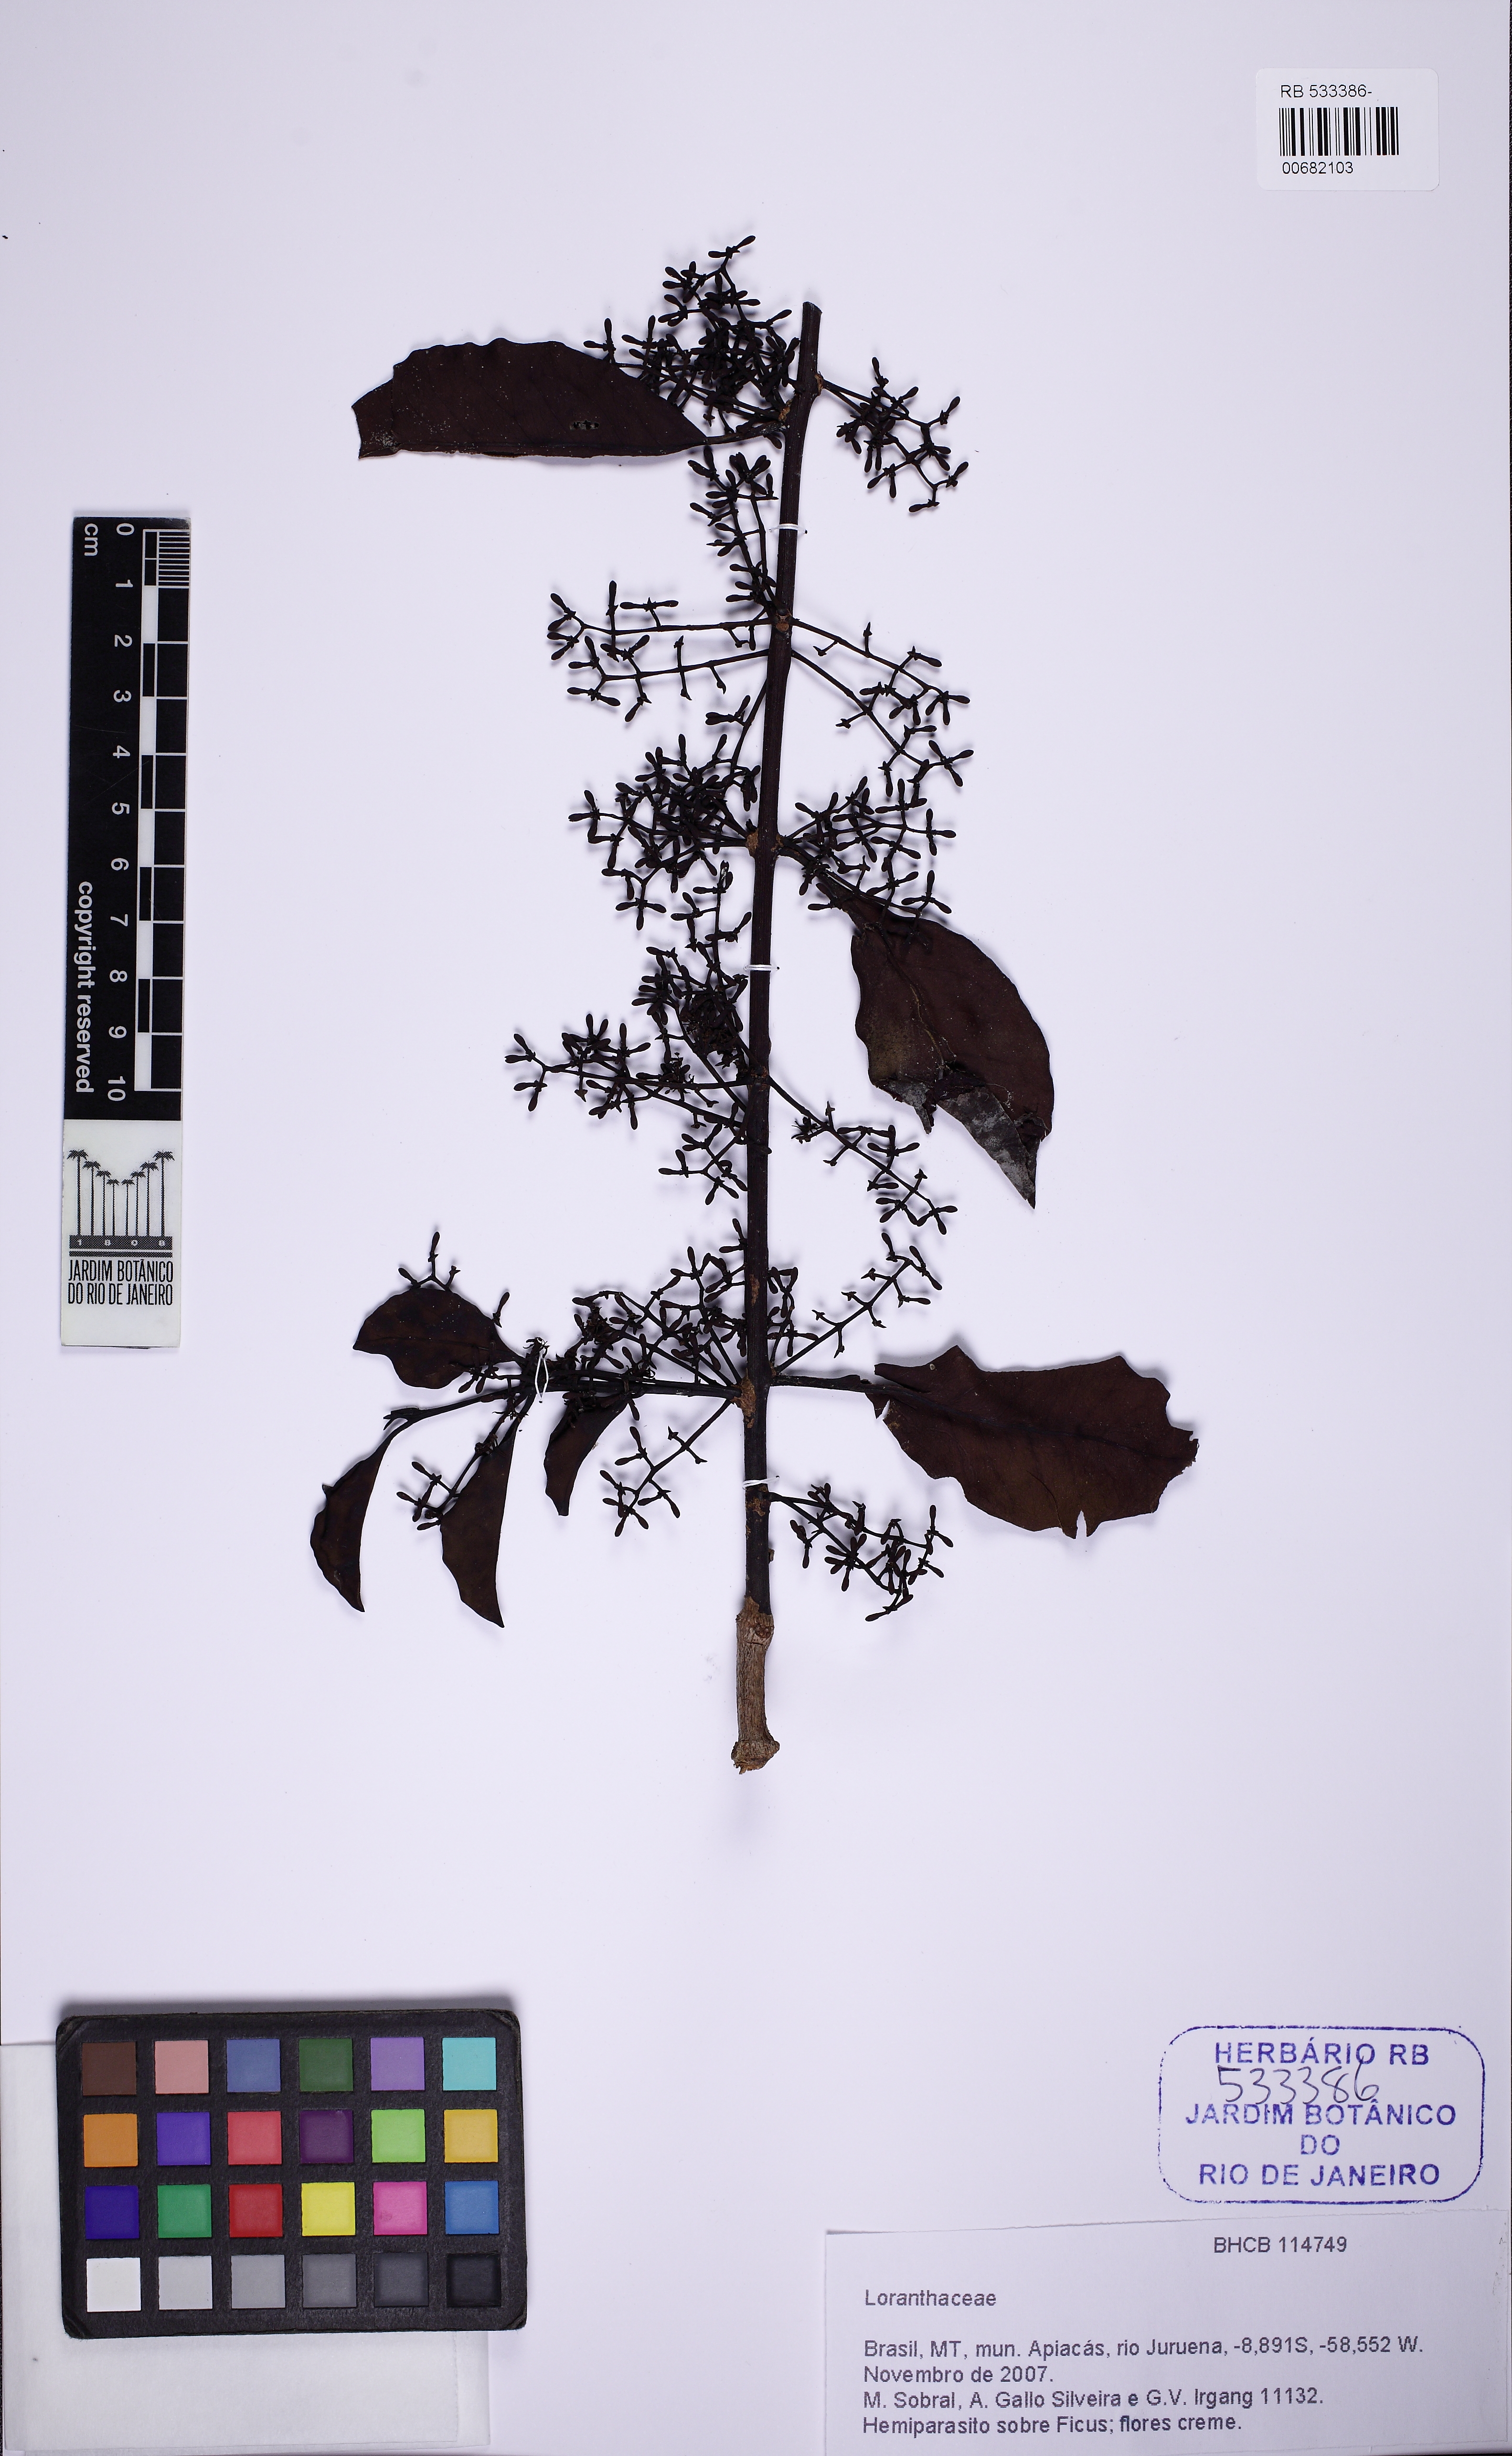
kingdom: Plantae
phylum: Tracheophyta
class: Magnoliopsida
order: Santalales
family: Loranthaceae
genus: Struthanthus
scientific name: Struthanthus
